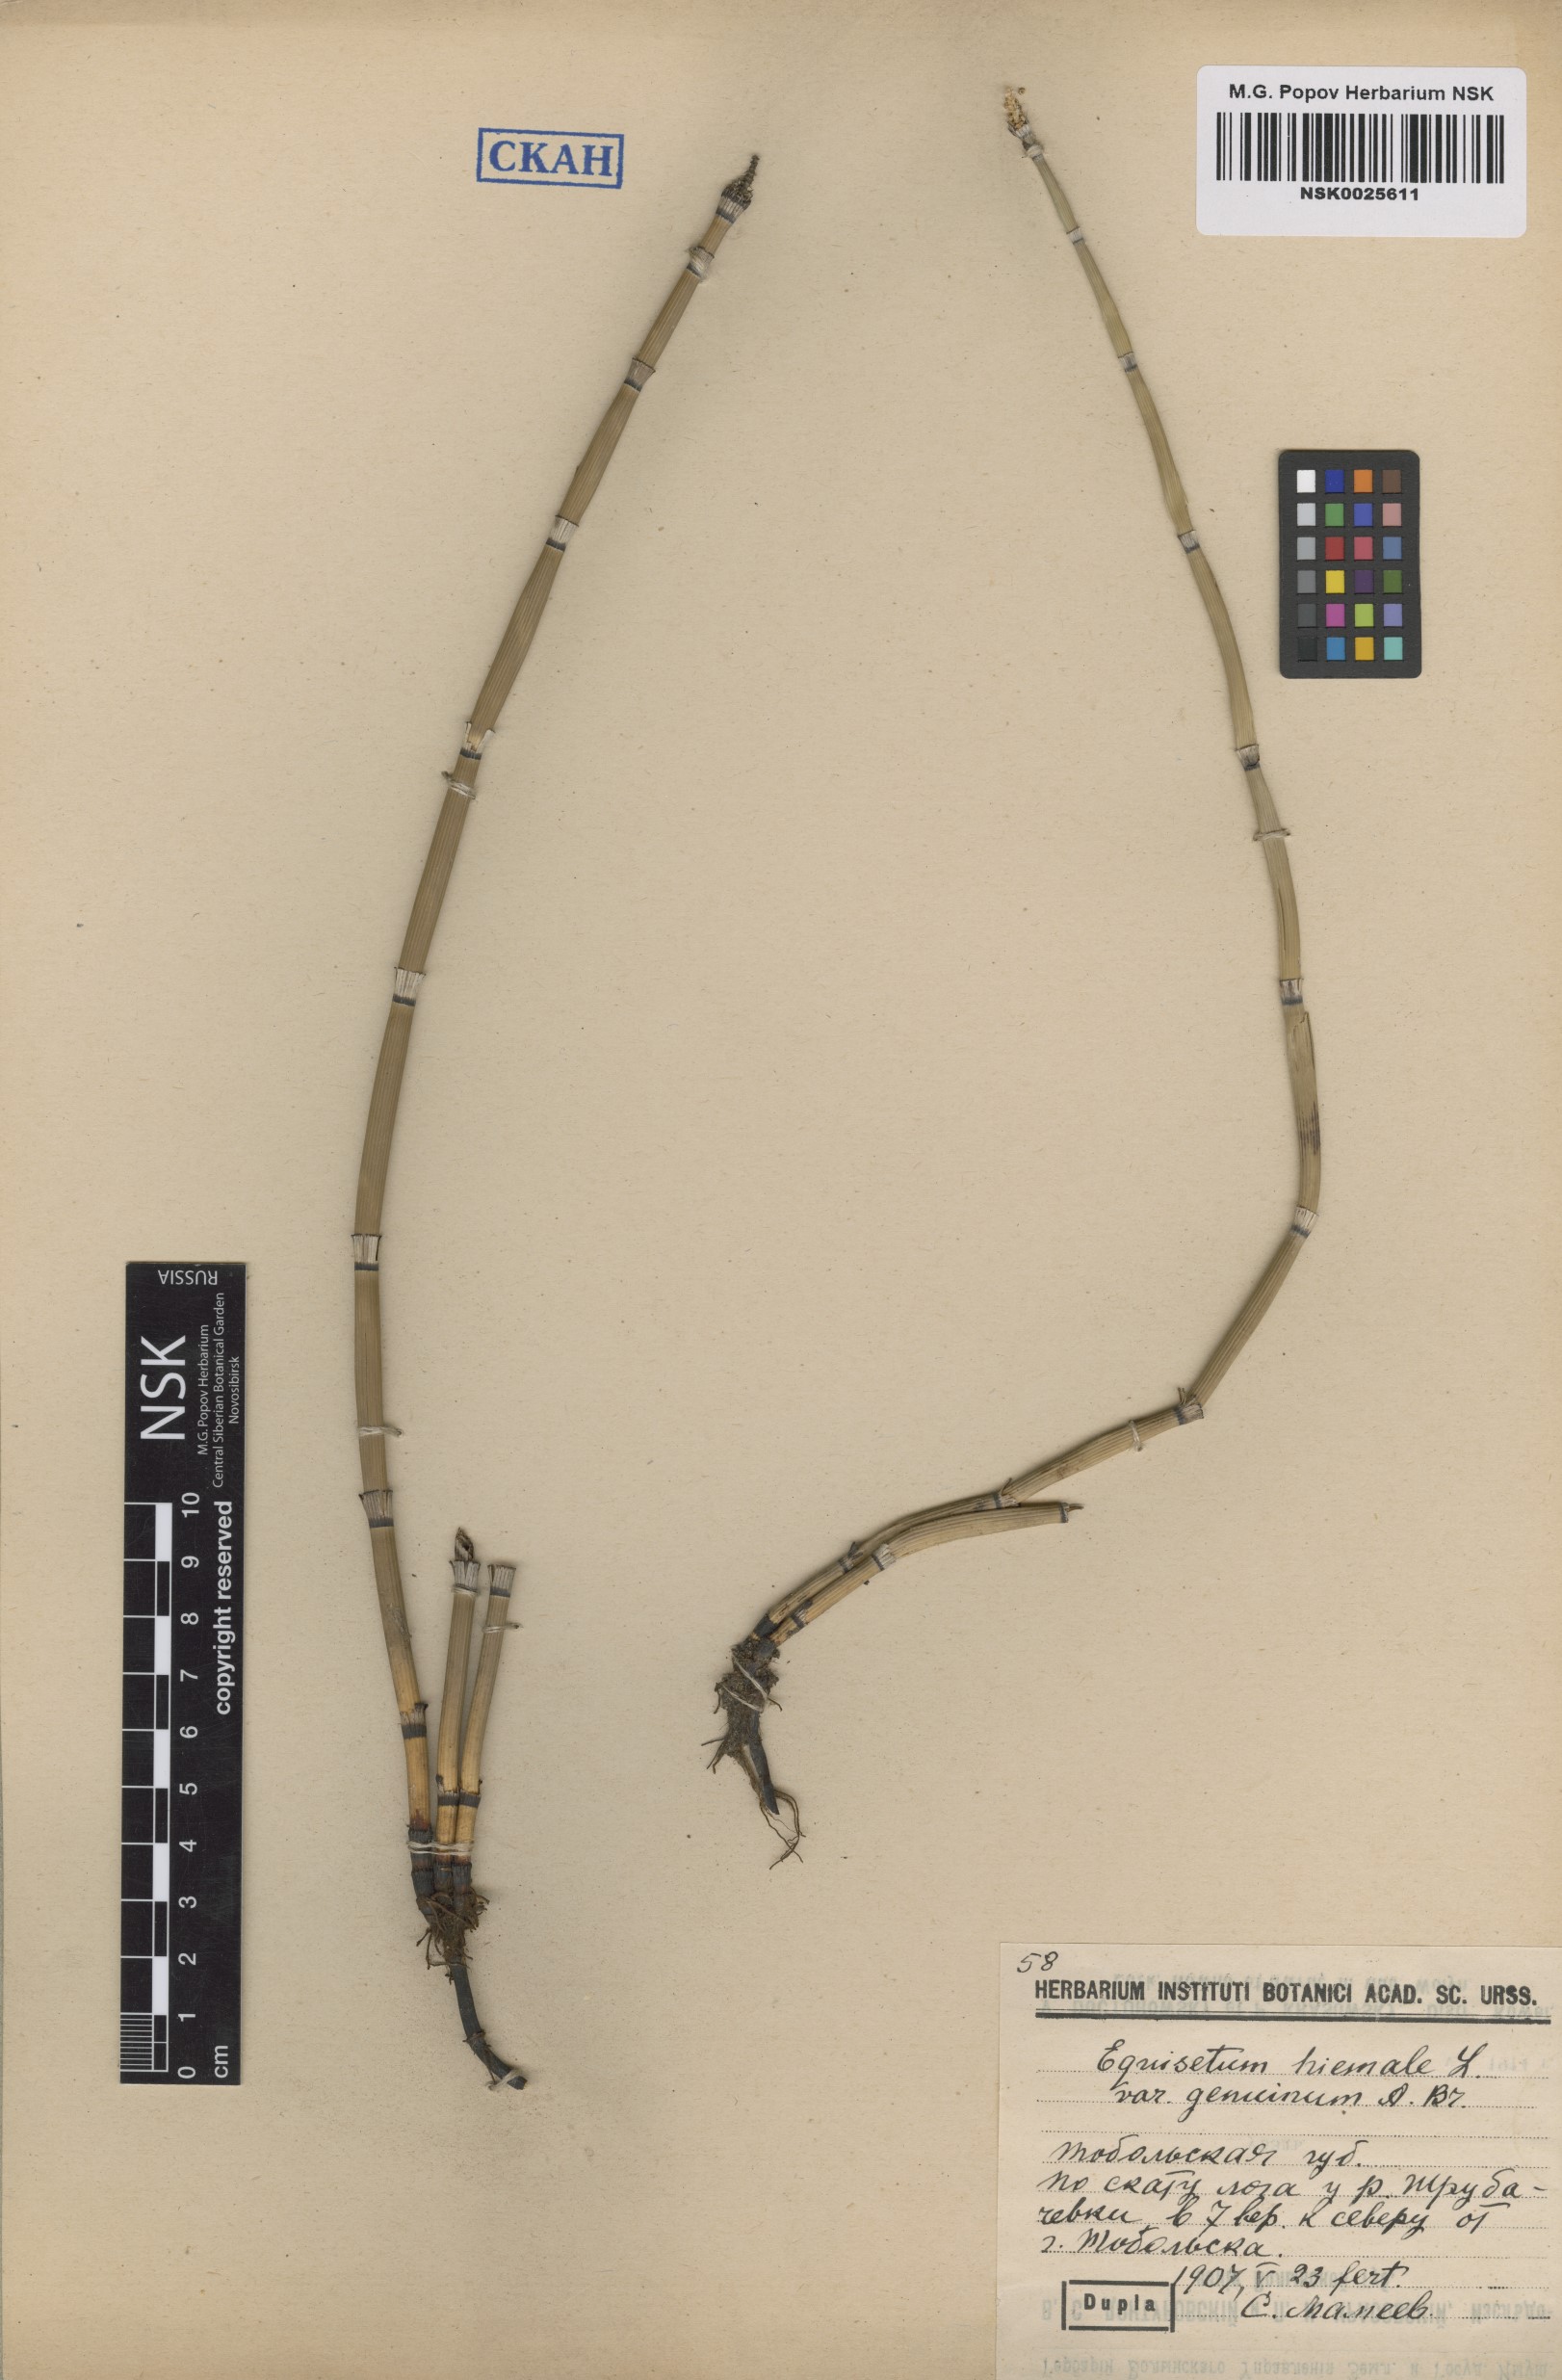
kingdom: Plantae
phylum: Tracheophyta
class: Polypodiopsida
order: Equisetales
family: Equisetaceae
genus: Equisetum
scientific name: Equisetum hyemale
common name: Rough horsetail
